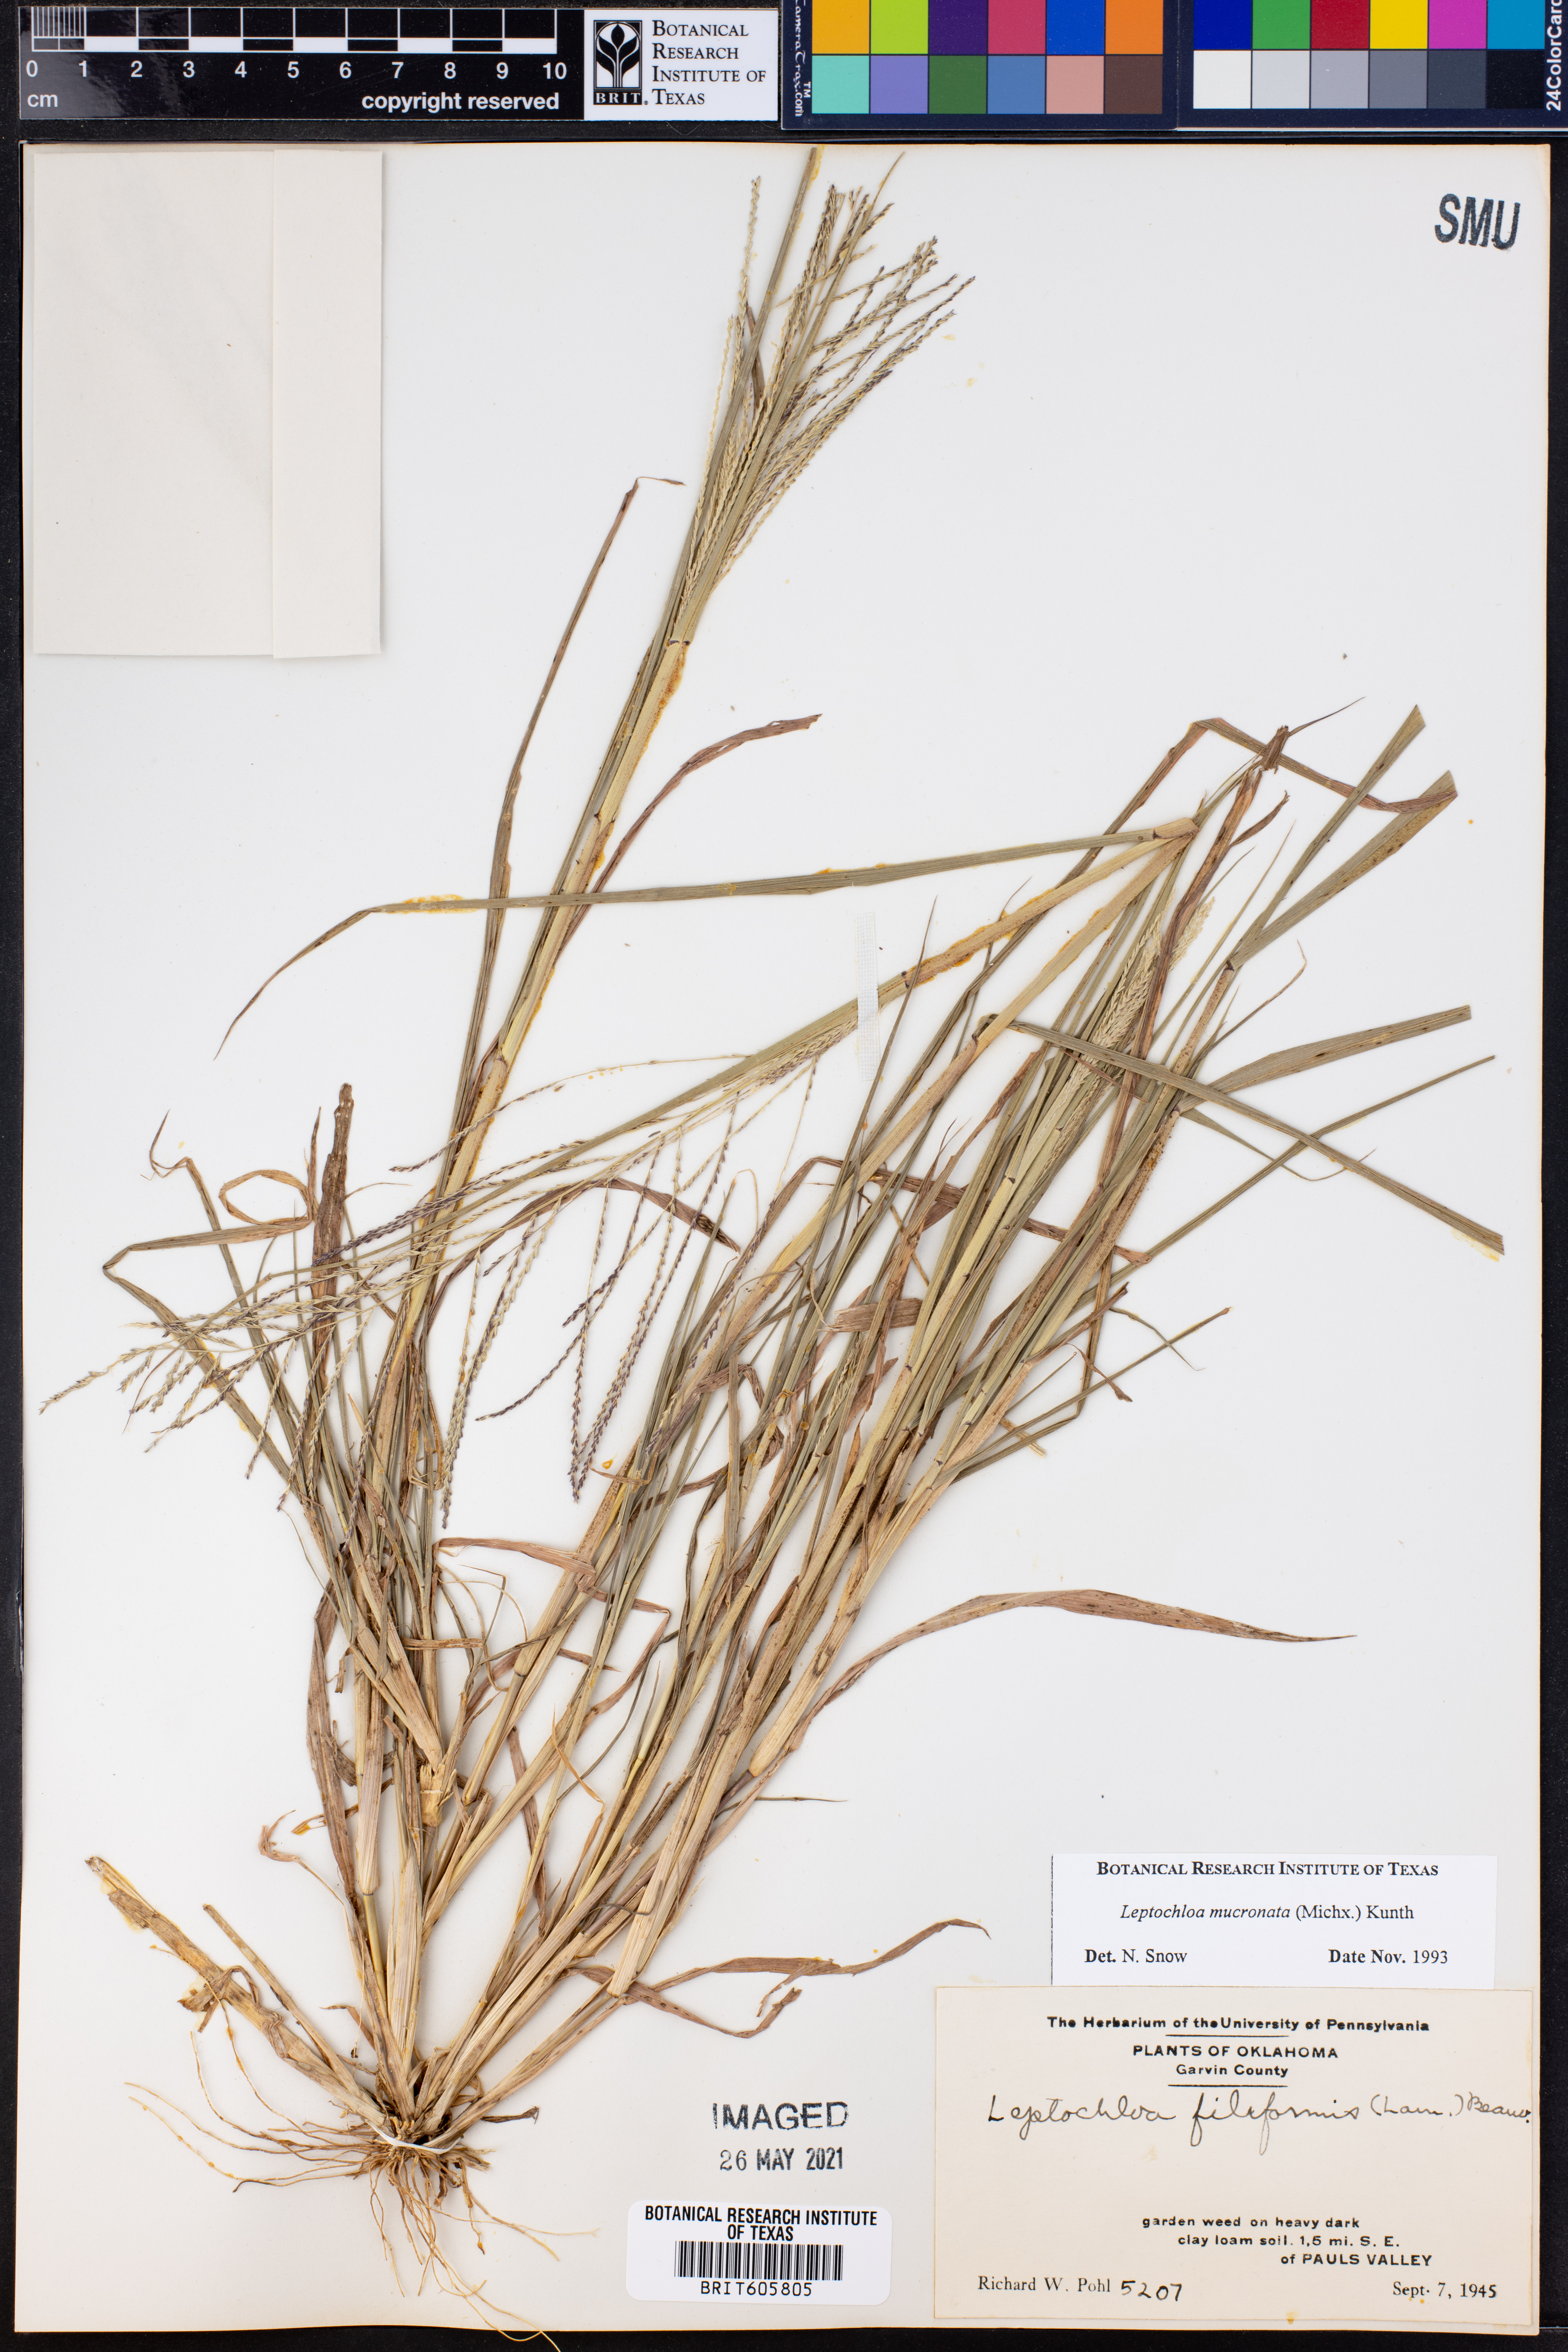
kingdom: Plantae
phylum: Tracheophyta
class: Liliopsida
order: Poales
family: Poaceae
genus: Leptochloa
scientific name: Leptochloa mucronata
